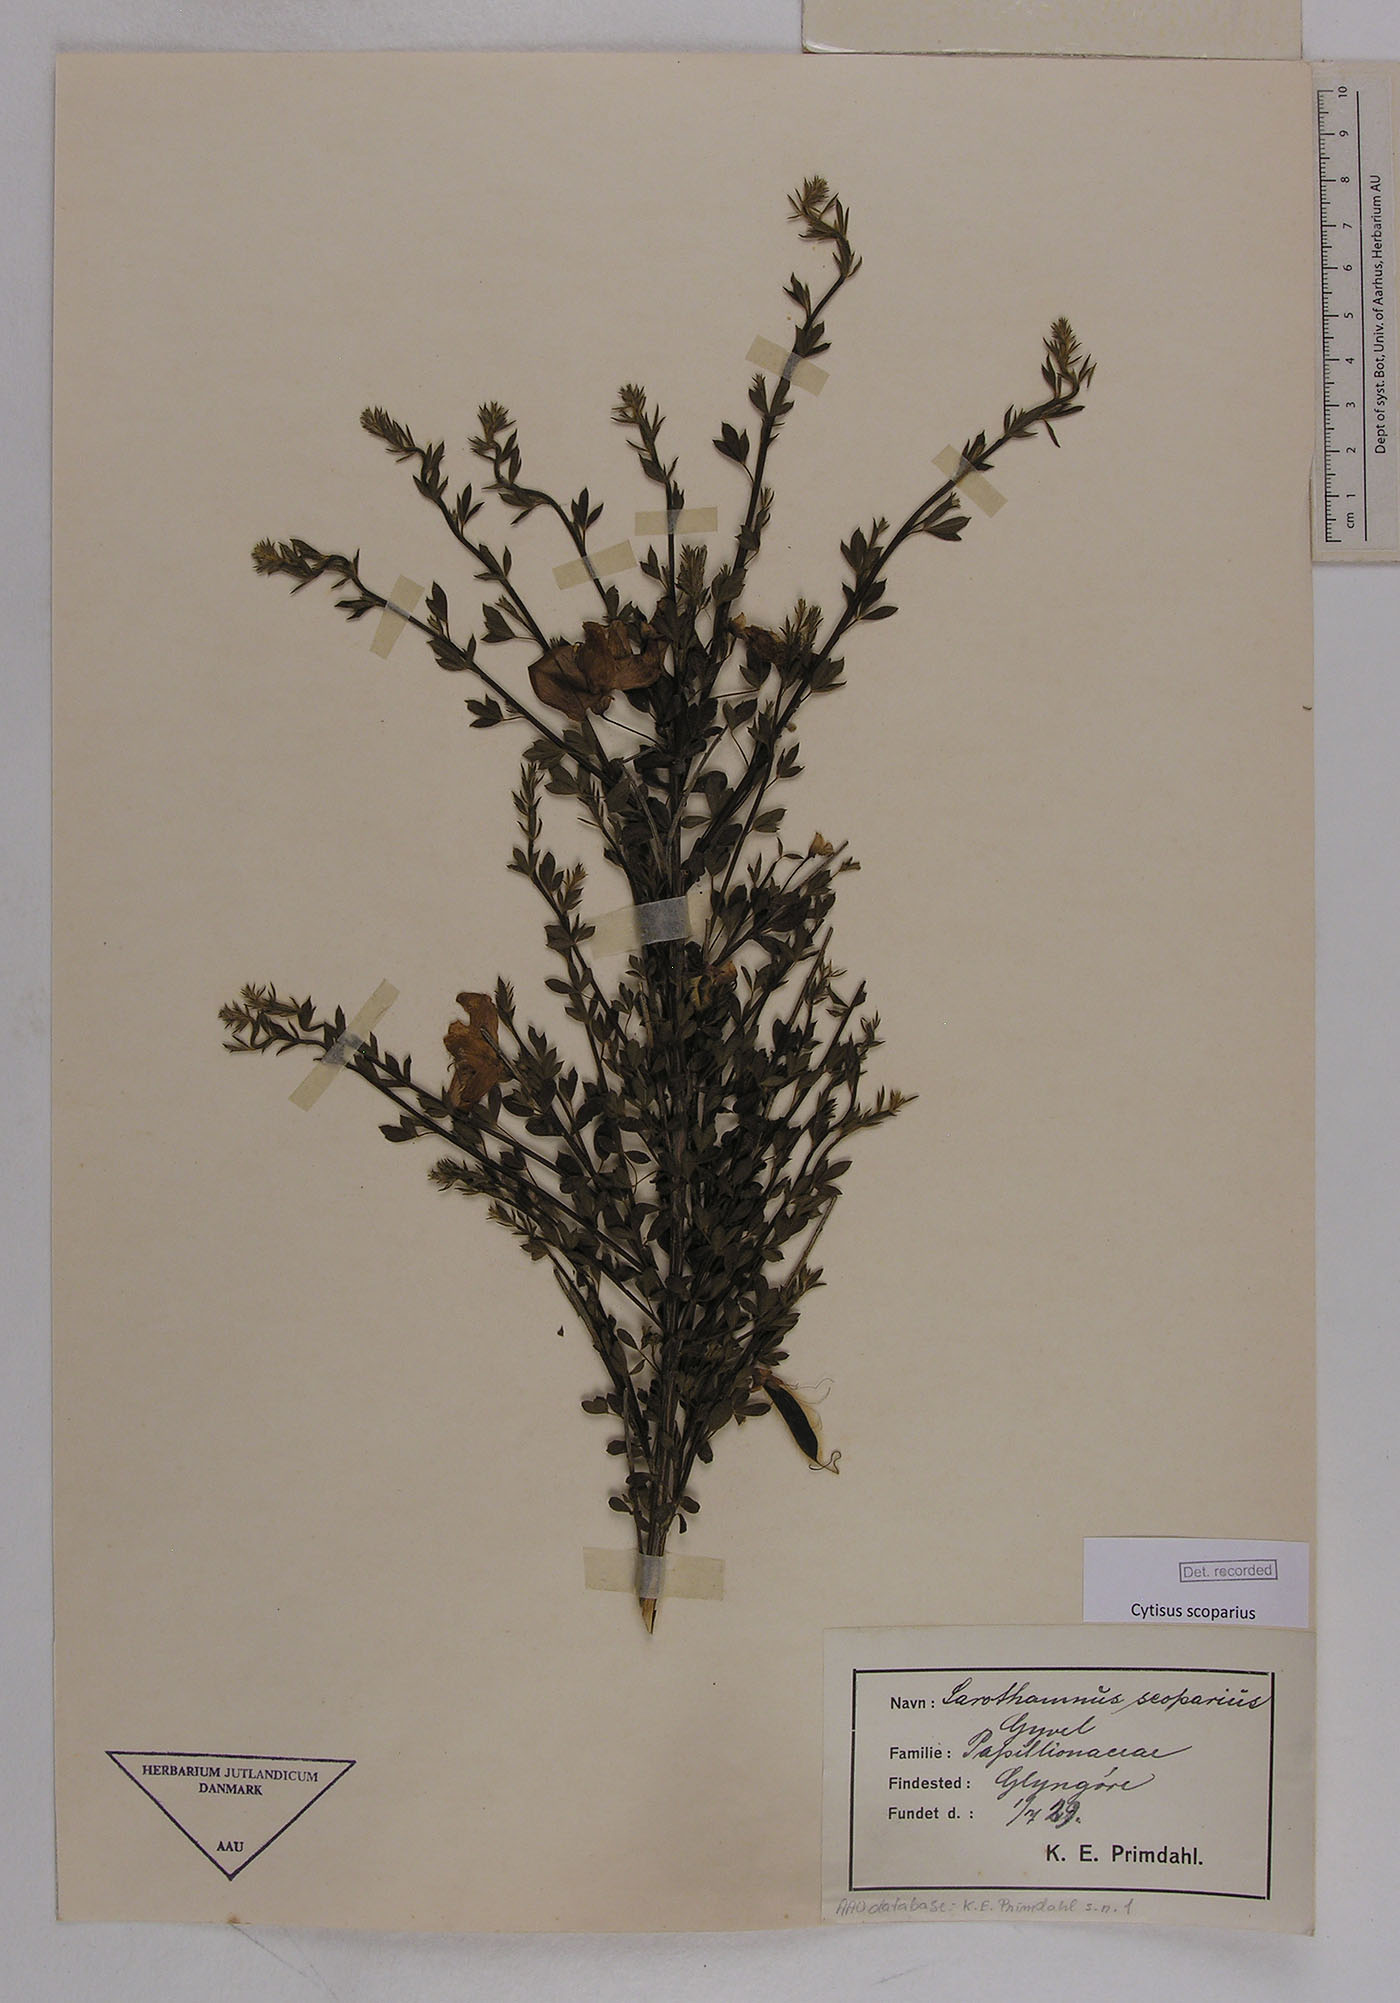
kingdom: Plantae
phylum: Tracheophyta
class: Magnoliopsida
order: Fabales
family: Fabaceae
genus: Cytisus
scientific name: Cytisus scoparius
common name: Scotch broom
